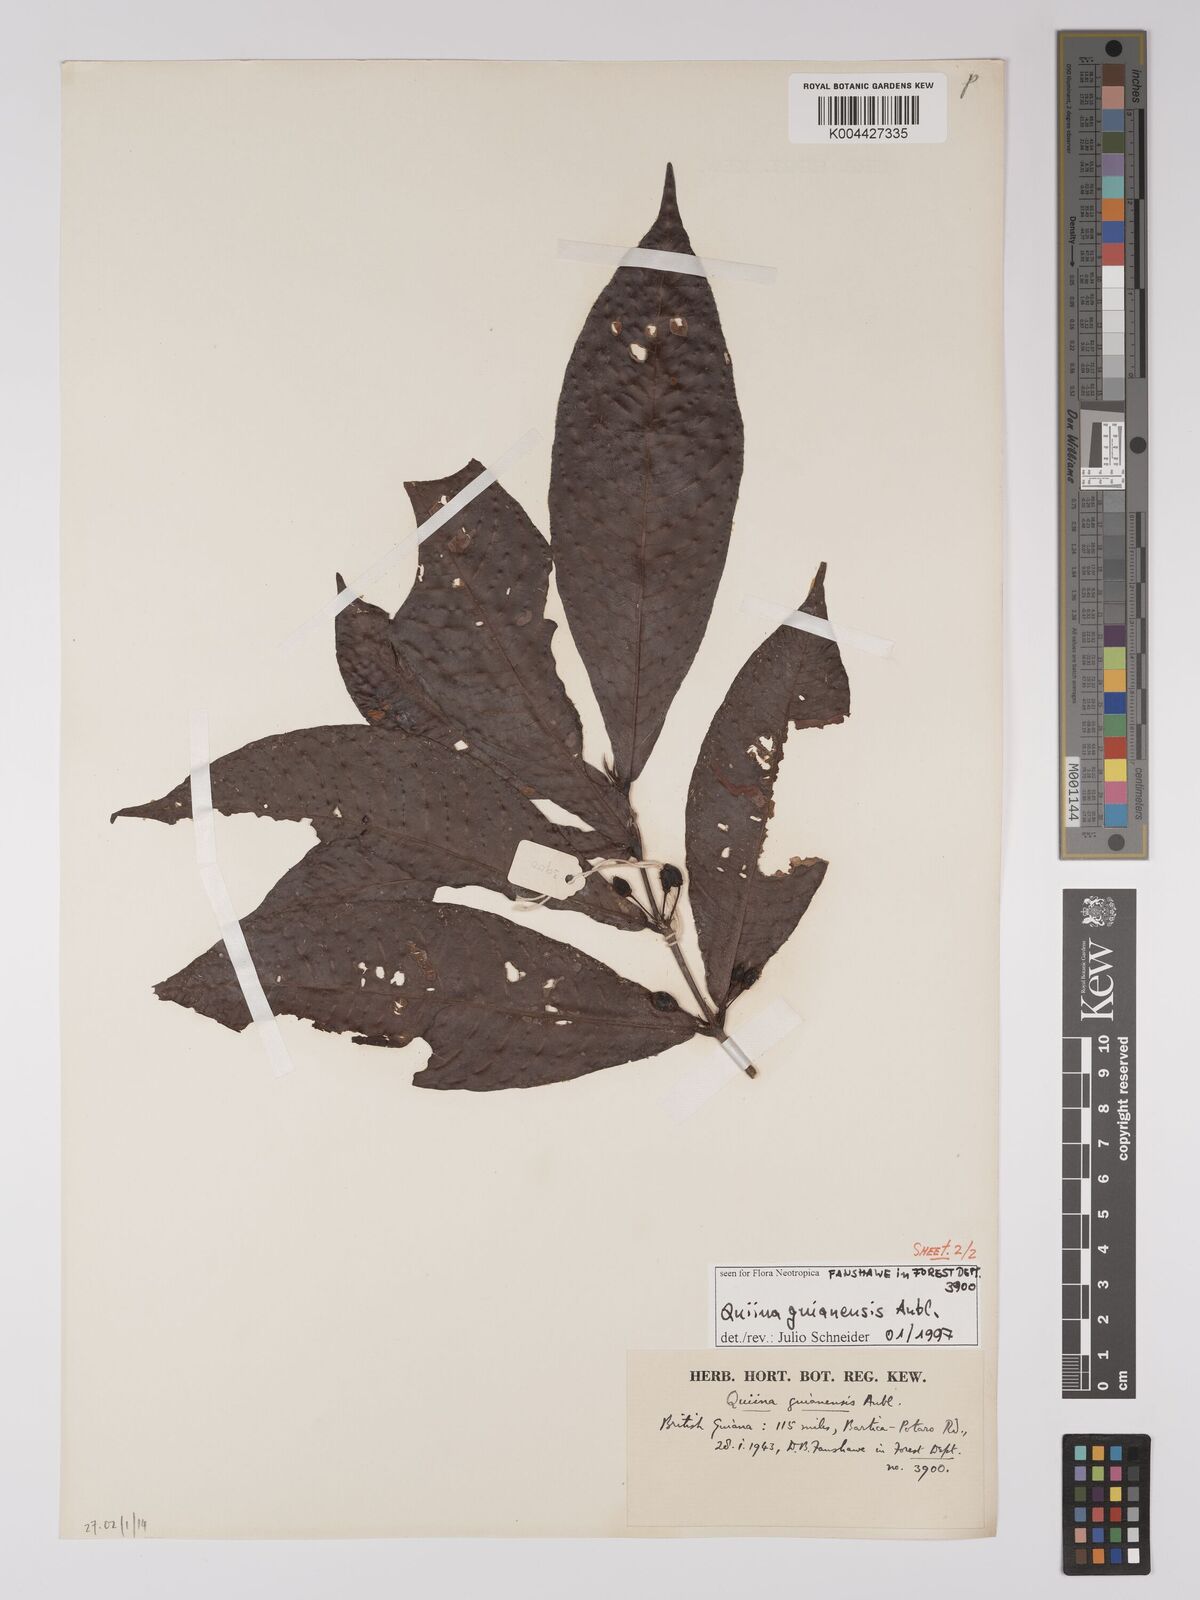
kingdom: Plantae
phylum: Tracheophyta
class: Magnoliopsida
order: Malpighiales
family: Quiinaceae
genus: Quiina
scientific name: Quiina guianensis
